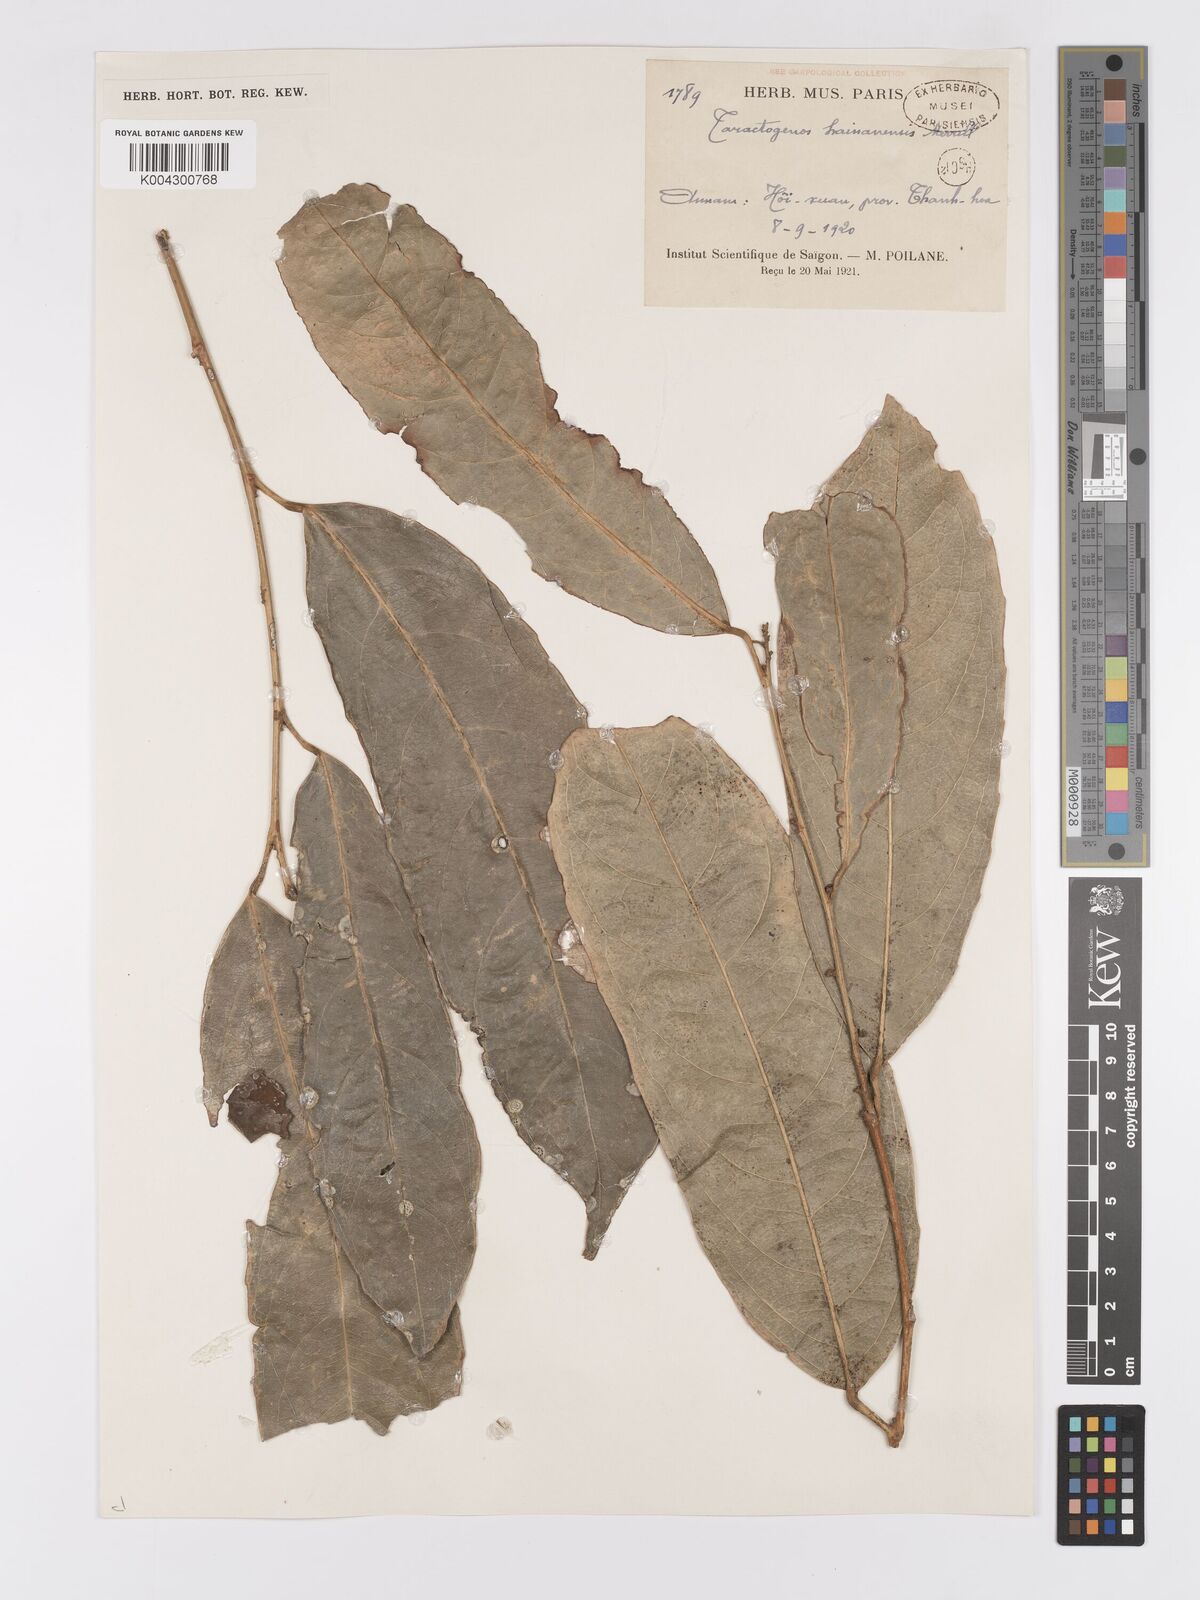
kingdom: Plantae
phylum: Tracheophyta
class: Magnoliopsida
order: Malpighiales
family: Achariaceae
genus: Hydnocarpus
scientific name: Hydnocarpus hainanensis
